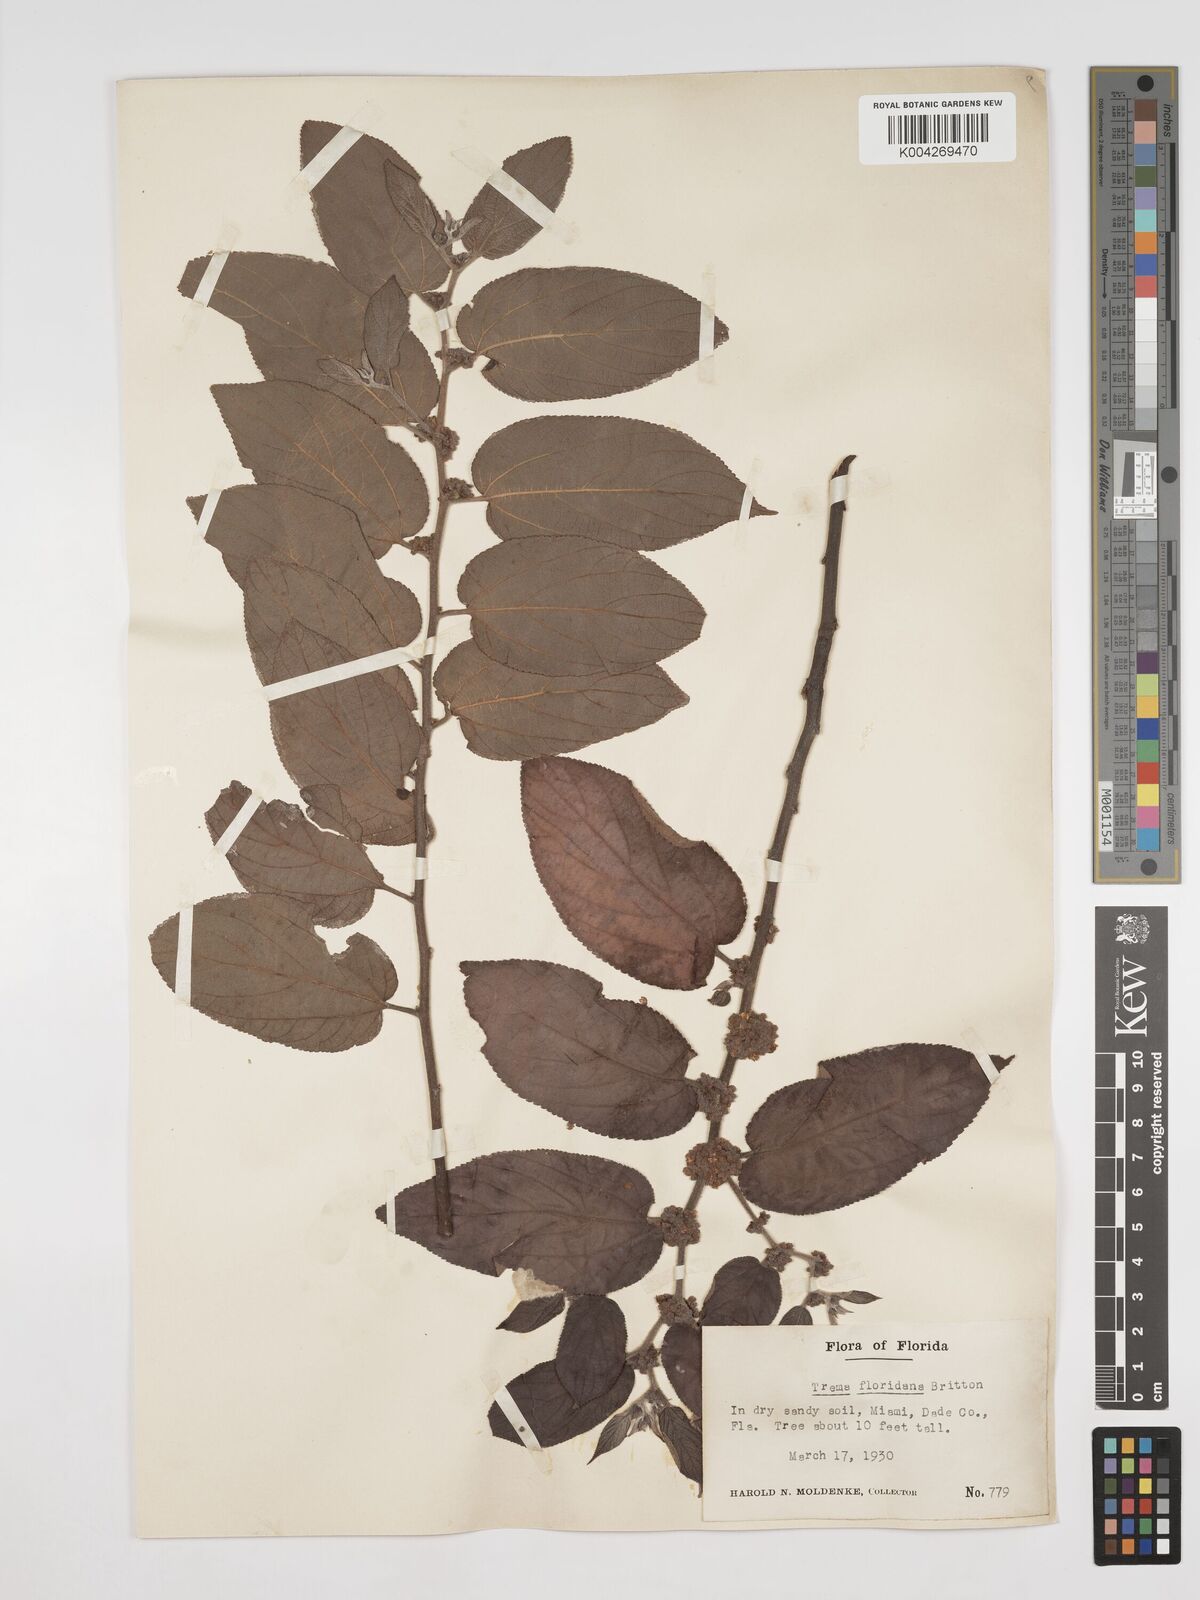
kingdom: Plantae
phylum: Tracheophyta
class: Magnoliopsida
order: Rosales
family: Cannabaceae
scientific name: Cannabaceae
